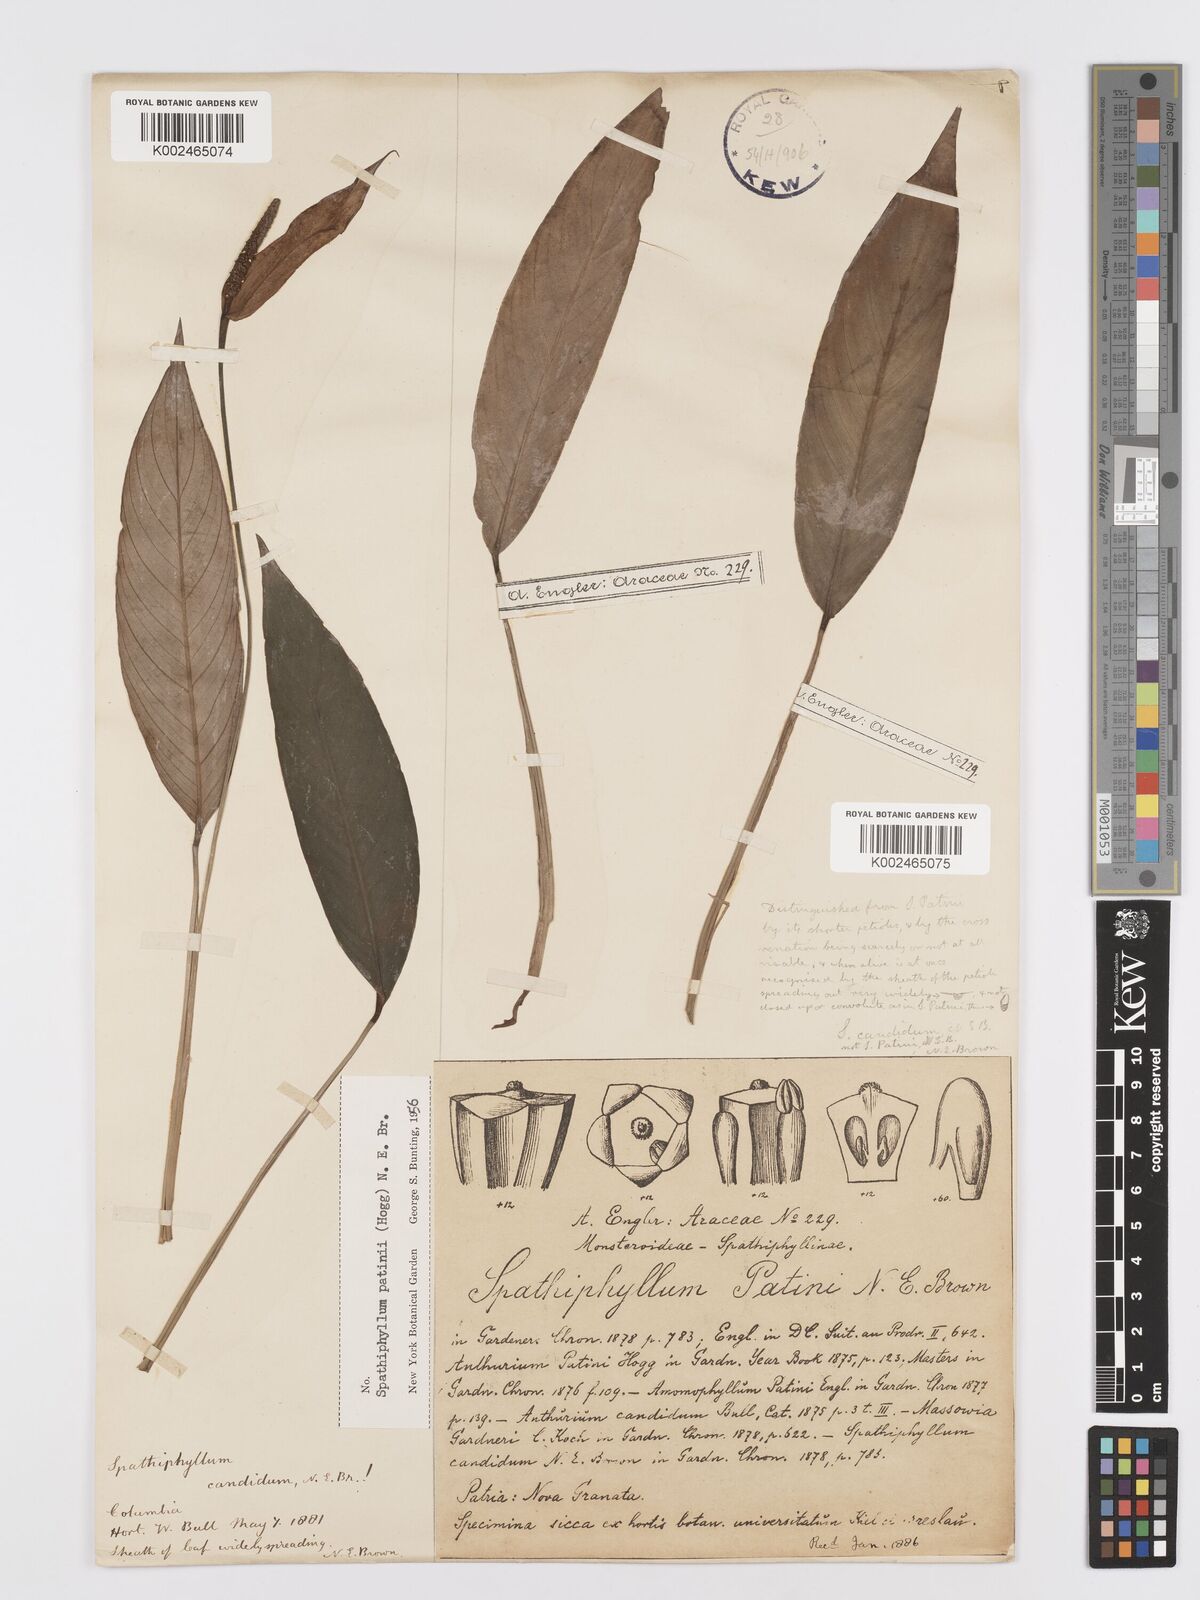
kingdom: Plantae
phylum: Tracheophyta
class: Liliopsida
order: Alismatales
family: Araceae
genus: Spathiphyllum
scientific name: Spathiphyllum patinii
